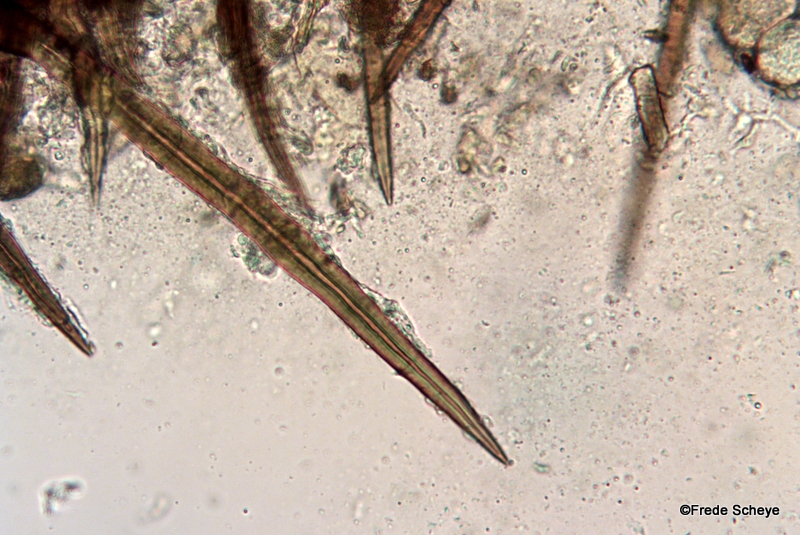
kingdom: Fungi
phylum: Ascomycota
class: Sordariomycetes
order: Sordariales
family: Helminthosphaeriaceae
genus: Echinosphaeria
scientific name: Echinosphaeria canescens
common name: brun børstekerne
